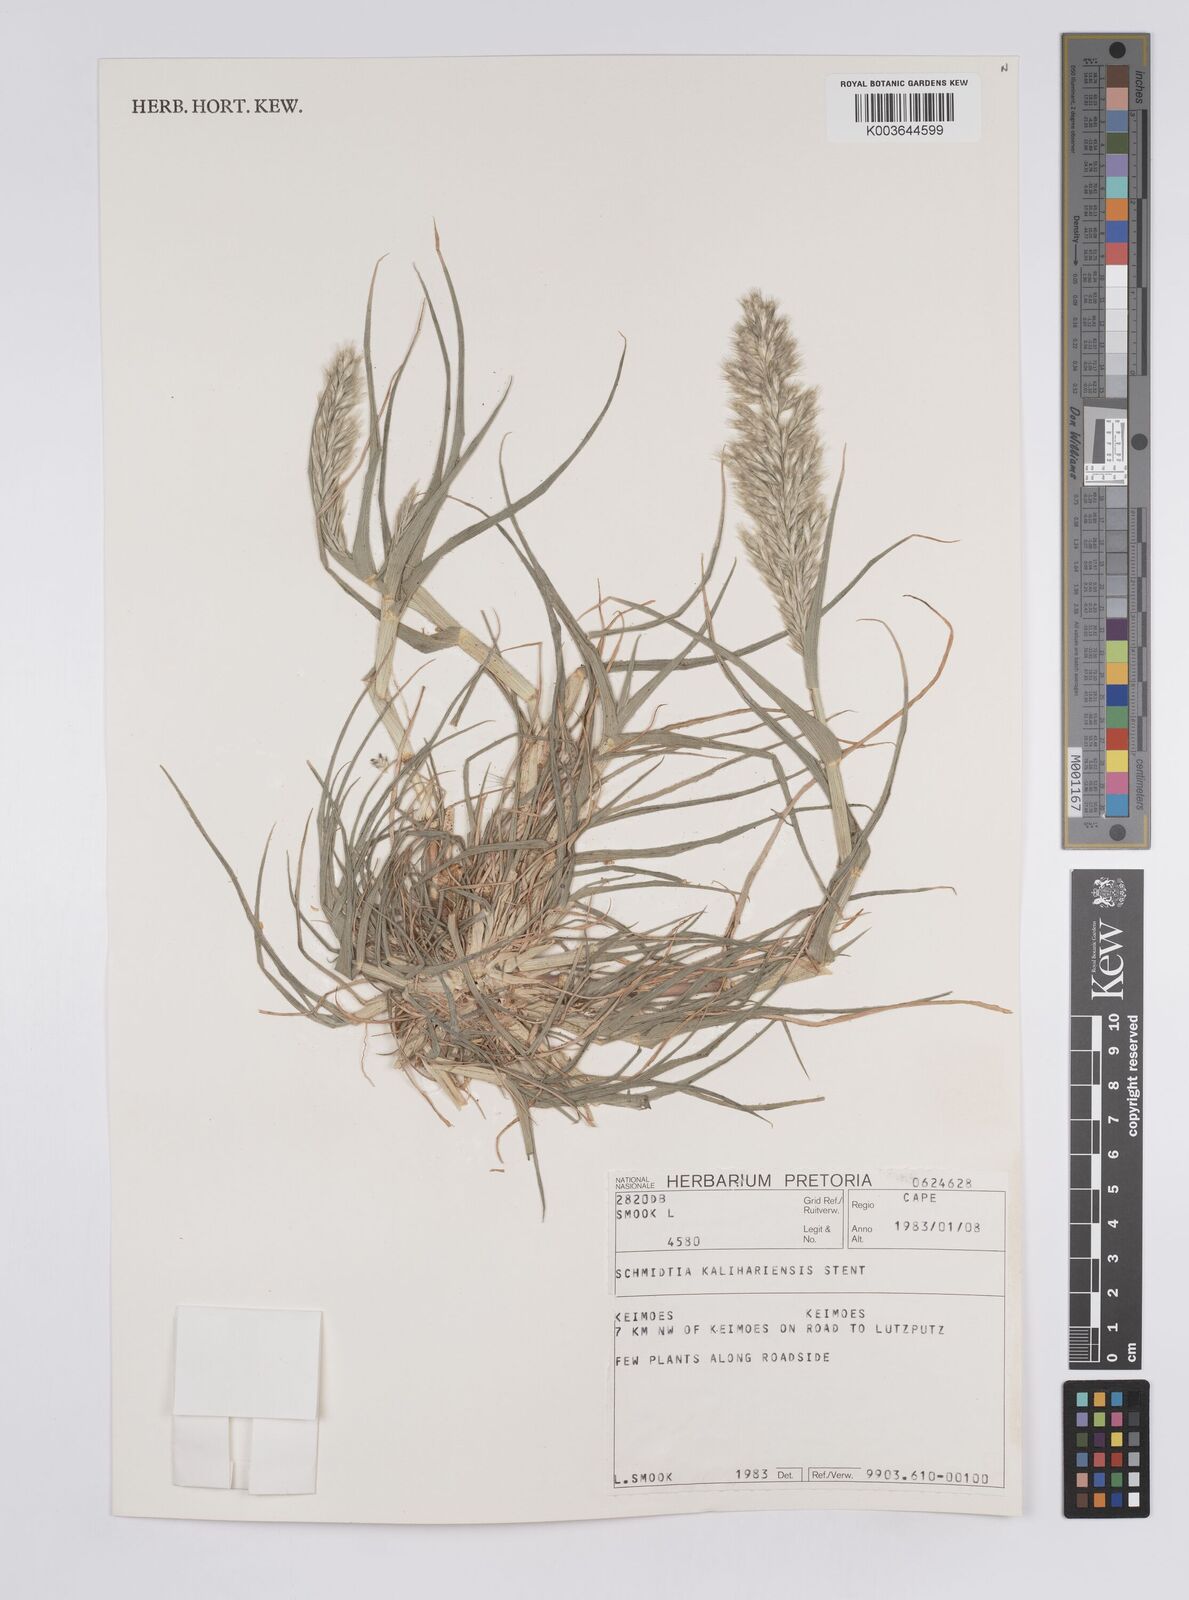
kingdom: Plantae
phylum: Tracheophyta
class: Liliopsida
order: Poales
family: Poaceae
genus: Schmidtia
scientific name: Schmidtia kalahariensis
